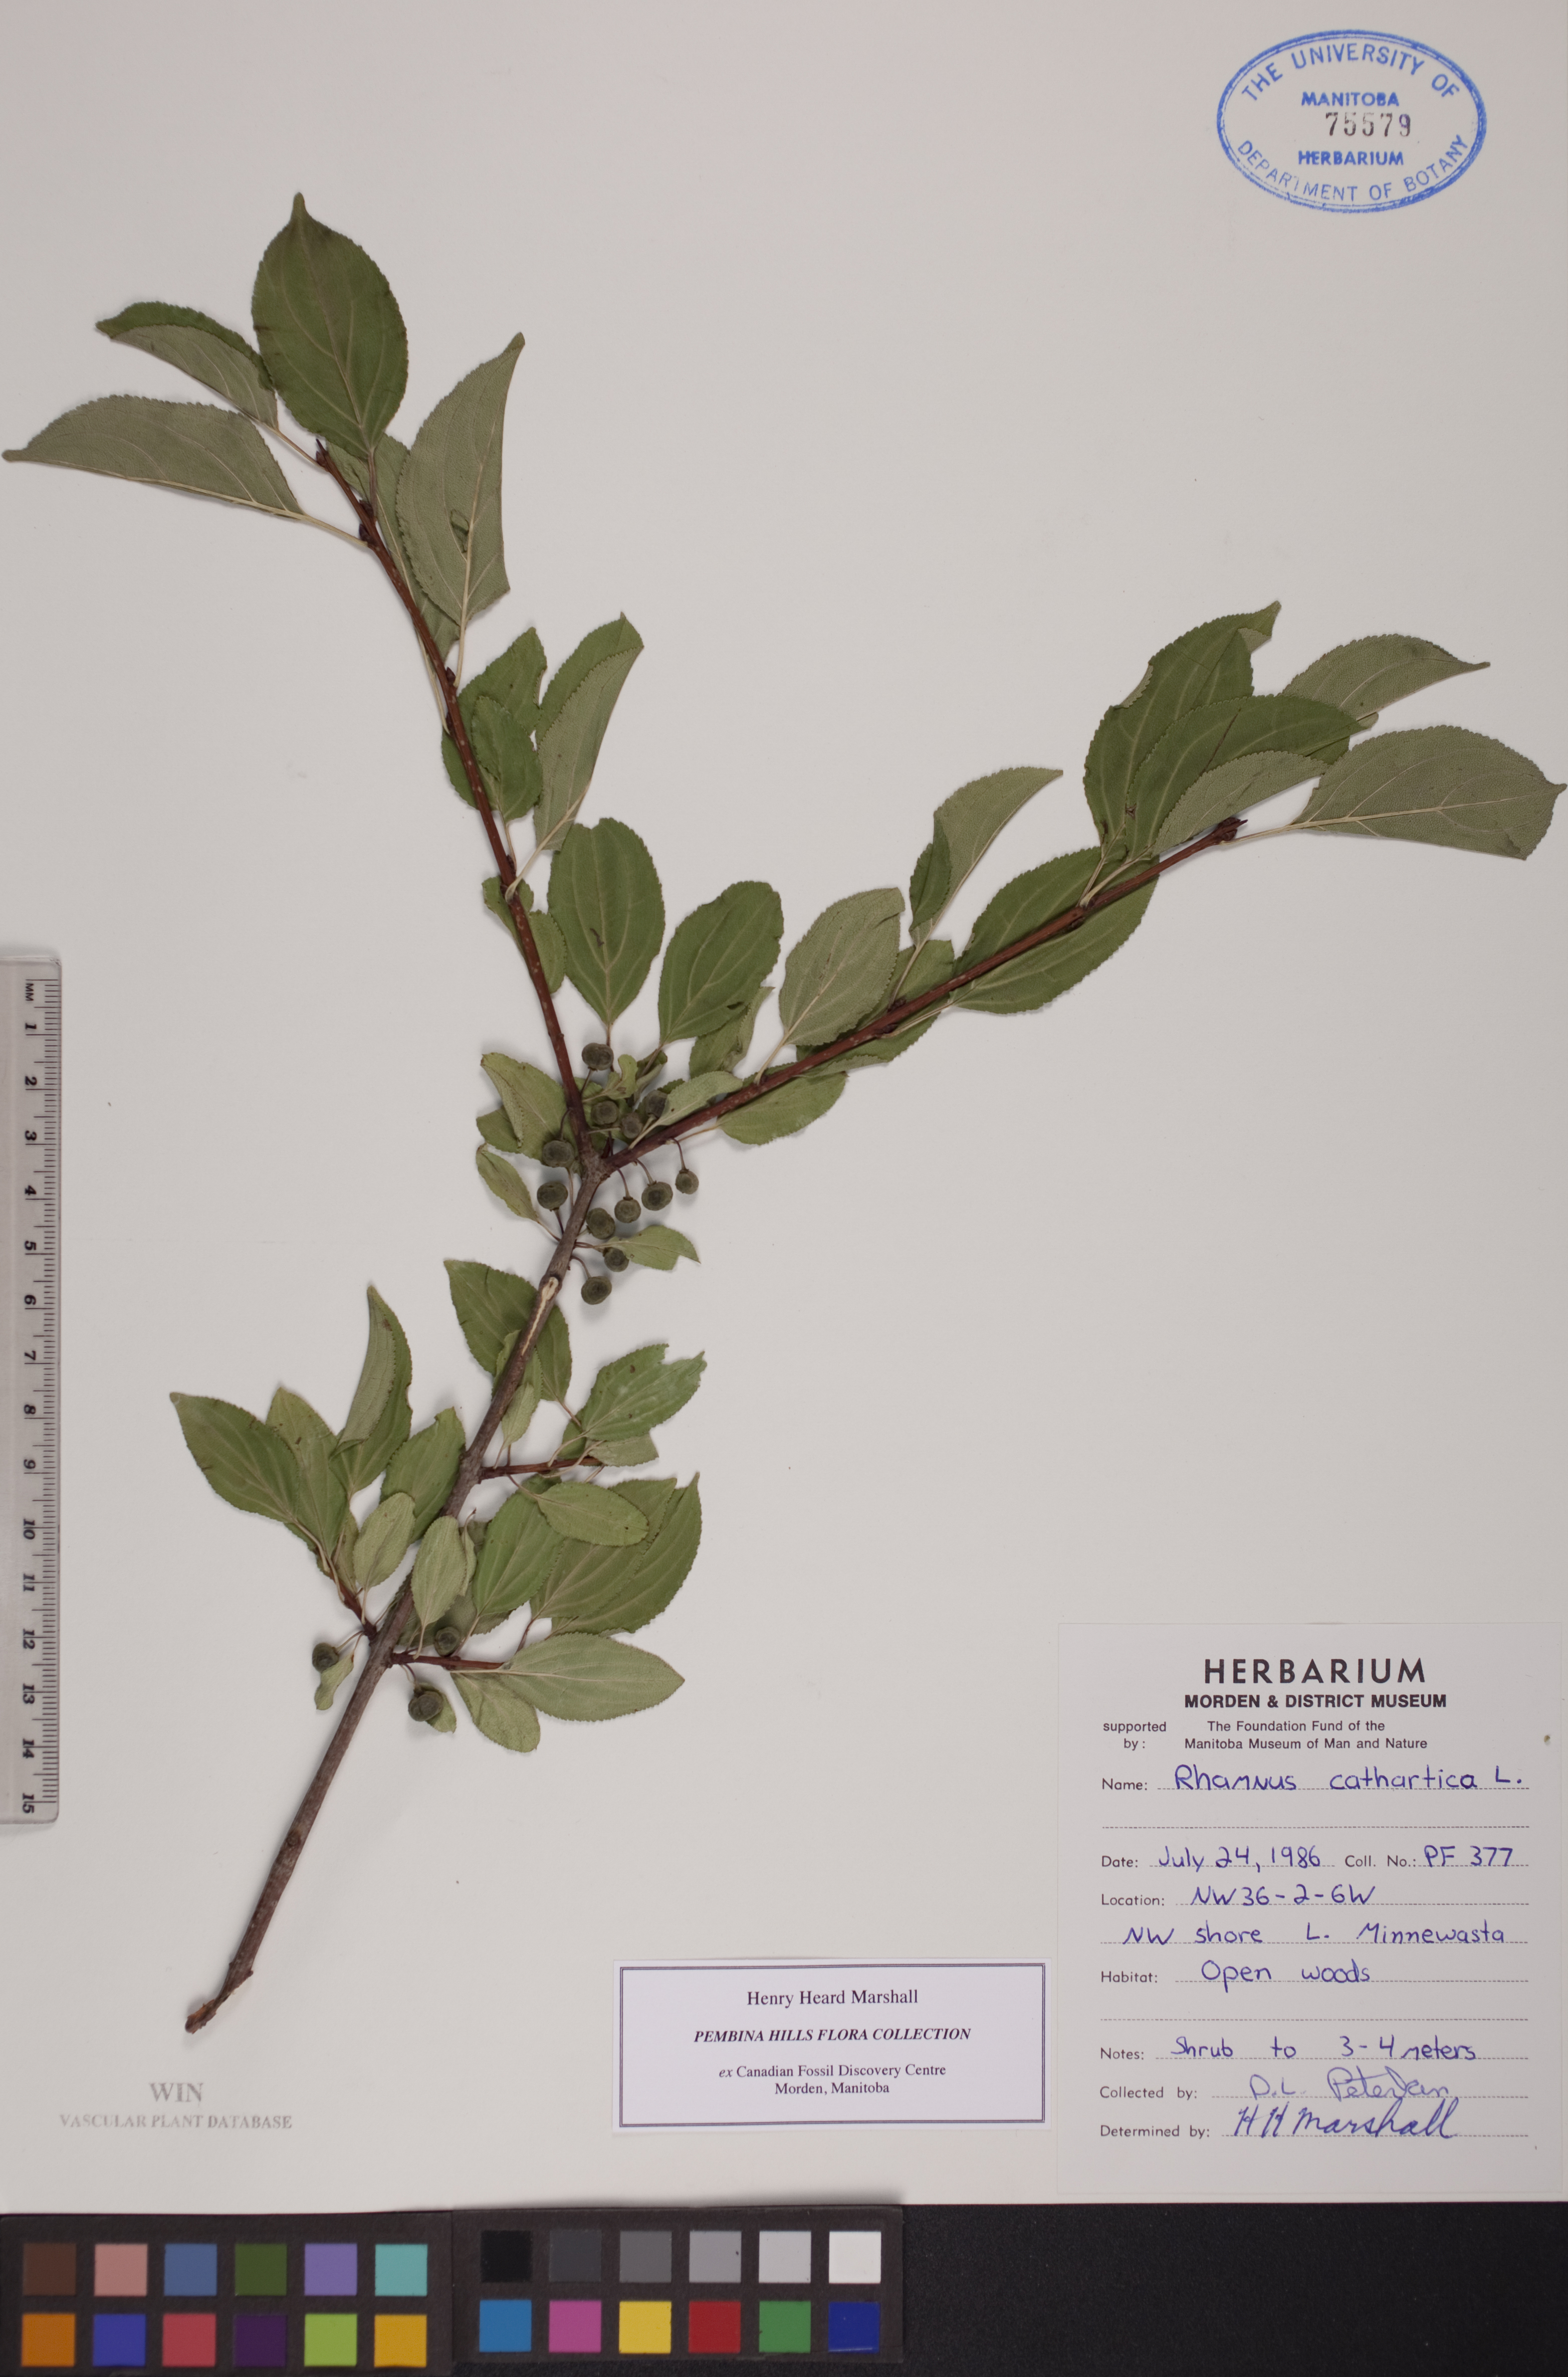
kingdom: Plantae
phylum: Tracheophyta
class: Magnoliopsida
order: Rosales
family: Rhamnaceae
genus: Rhamnus
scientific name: Rhamnus cathartica
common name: Common buckthorn
